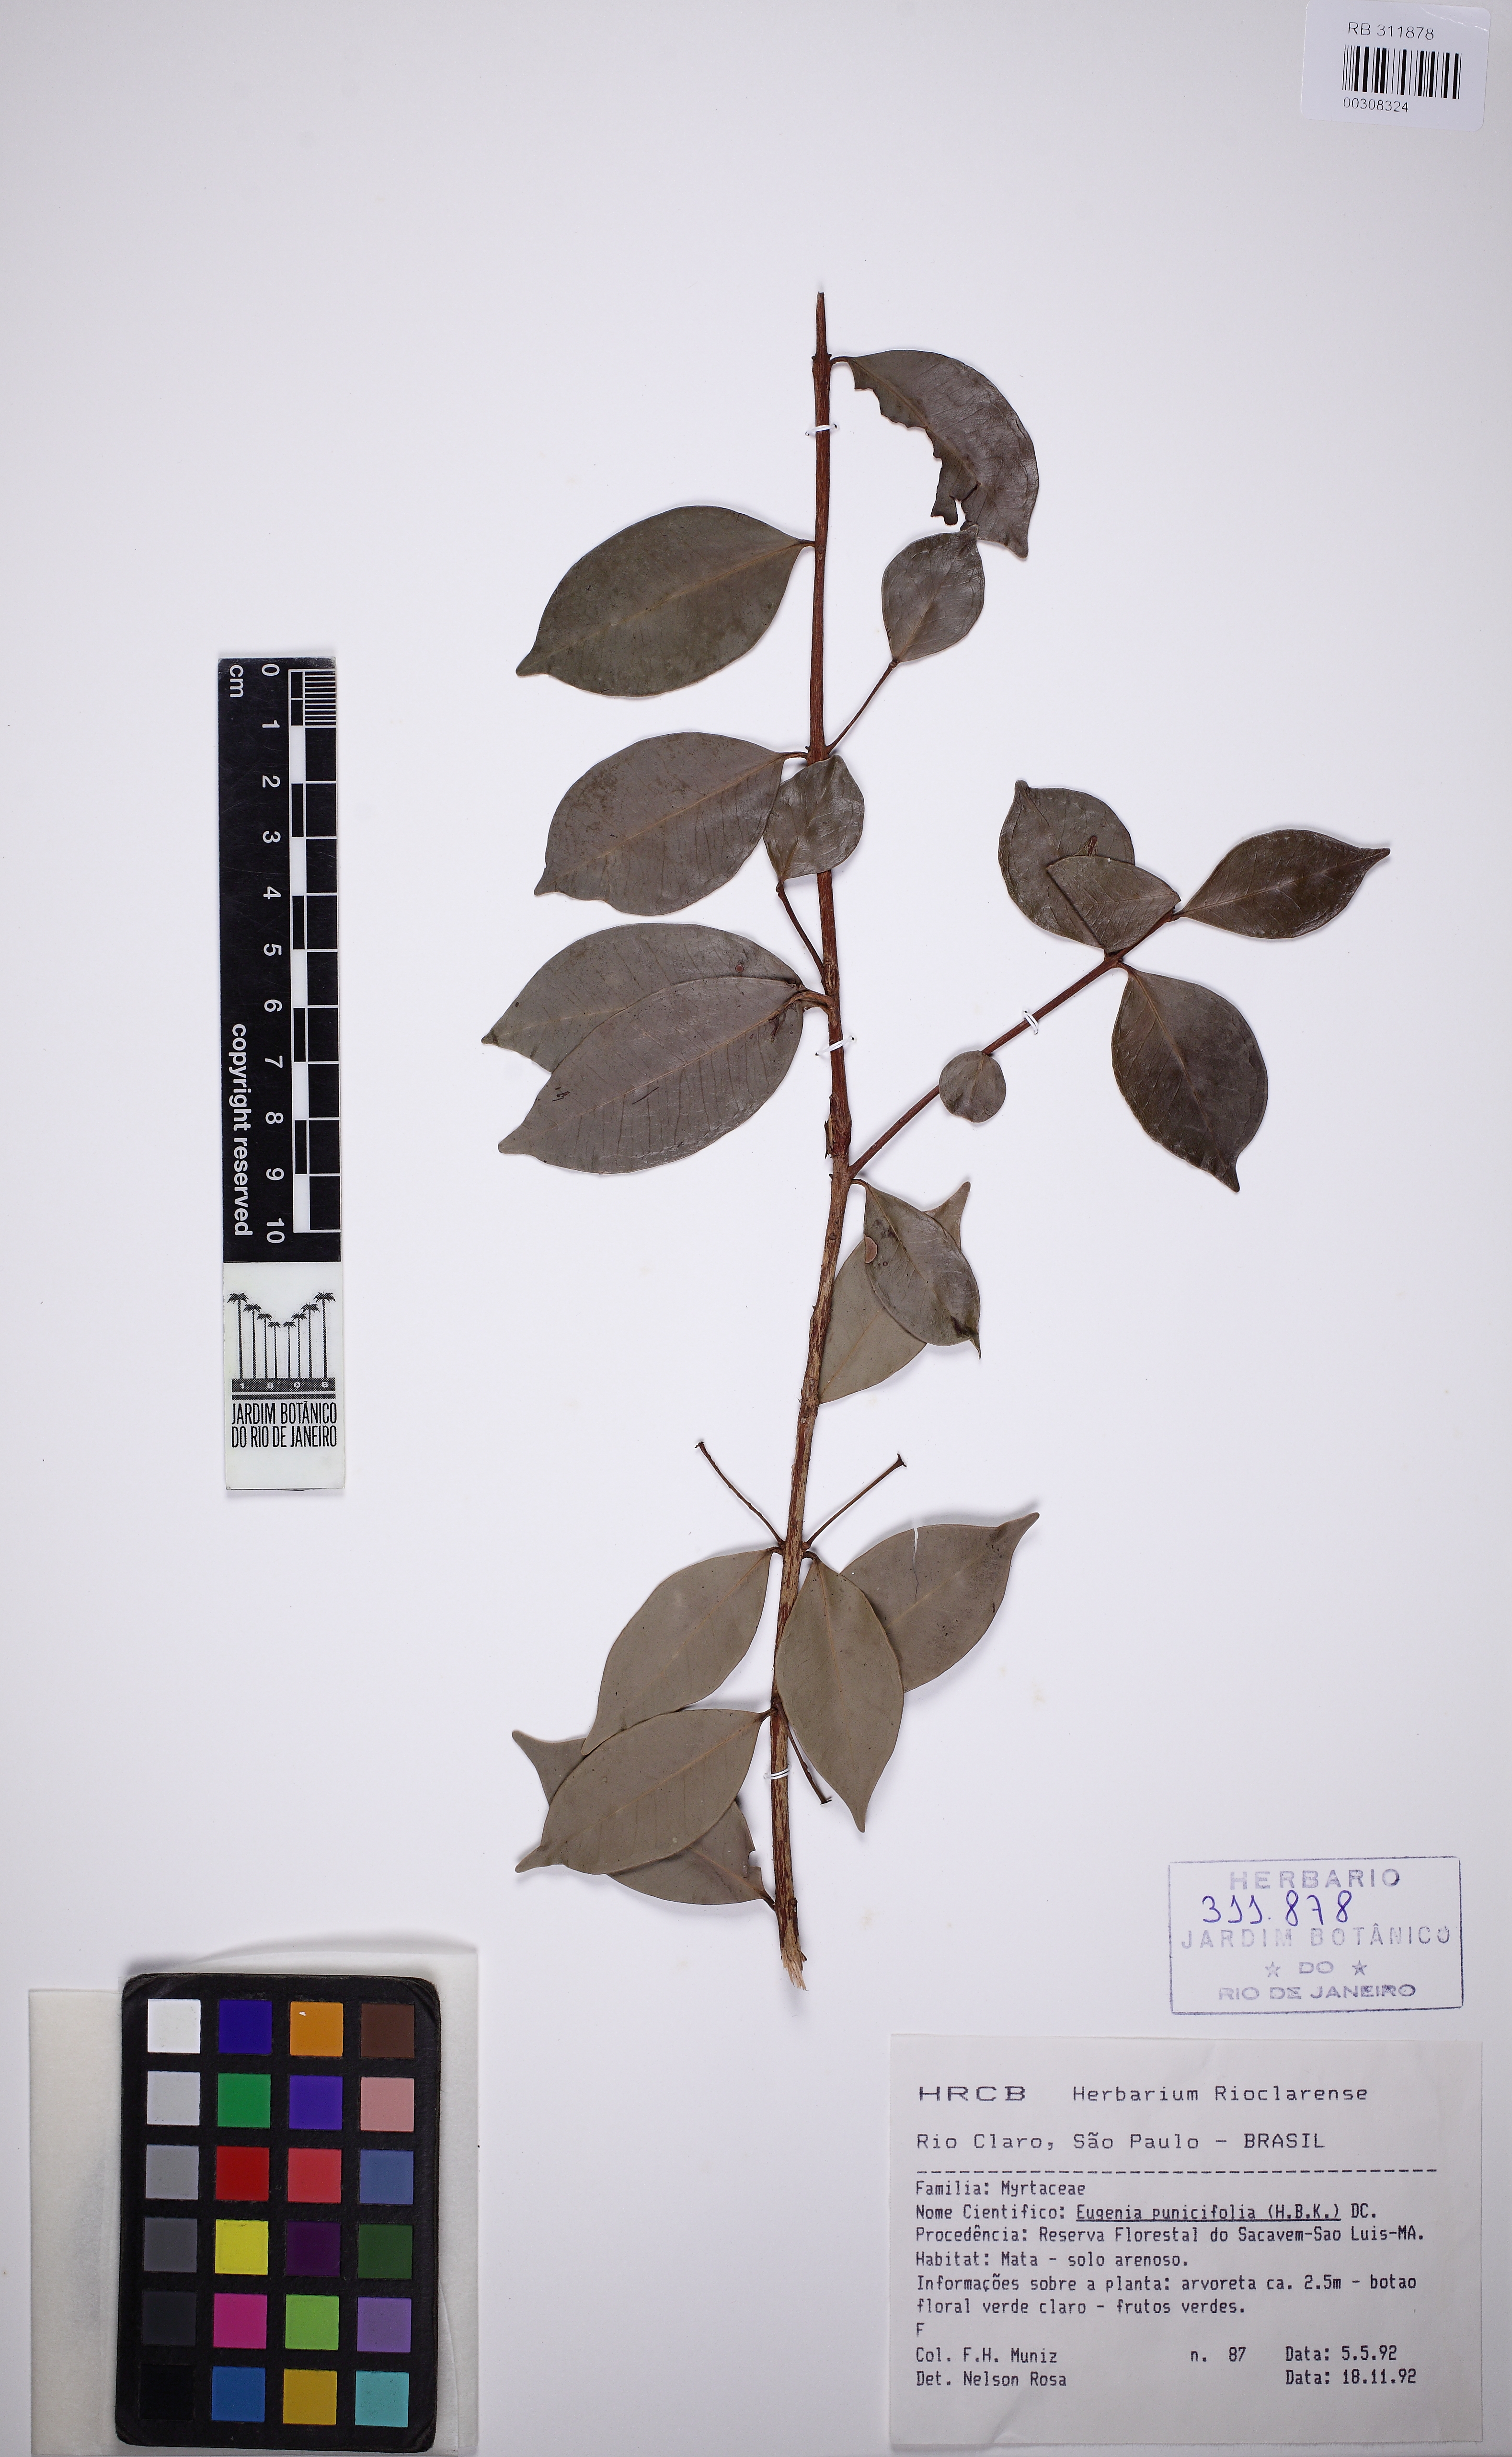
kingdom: Plantae
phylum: Tracheophyta
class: Magnoliopsida
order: Myrtales
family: Myrtaceae
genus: Eugenia
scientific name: Eugenia punicifolia
